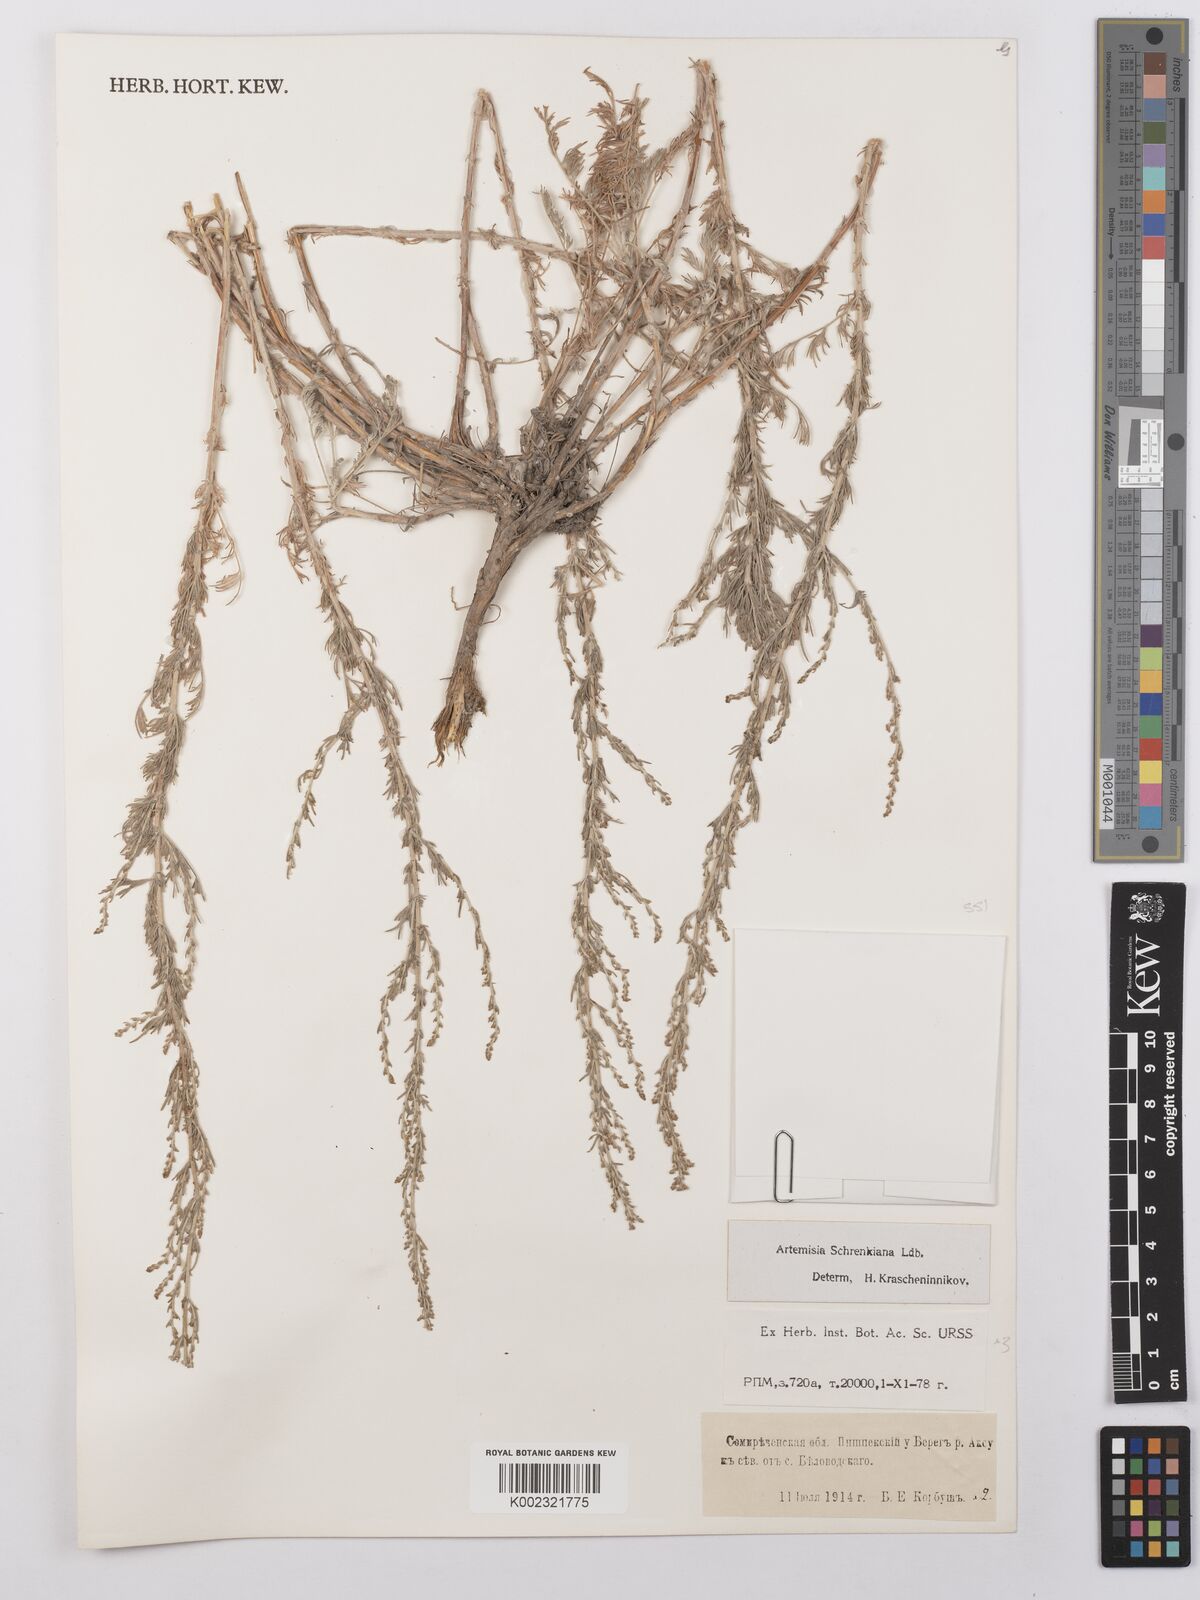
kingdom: Plantae
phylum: Tracheophyta
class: Magnoliopsida
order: Asterales
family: Asteraceae
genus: Artemisia
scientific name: Artemisia schrenkiana
